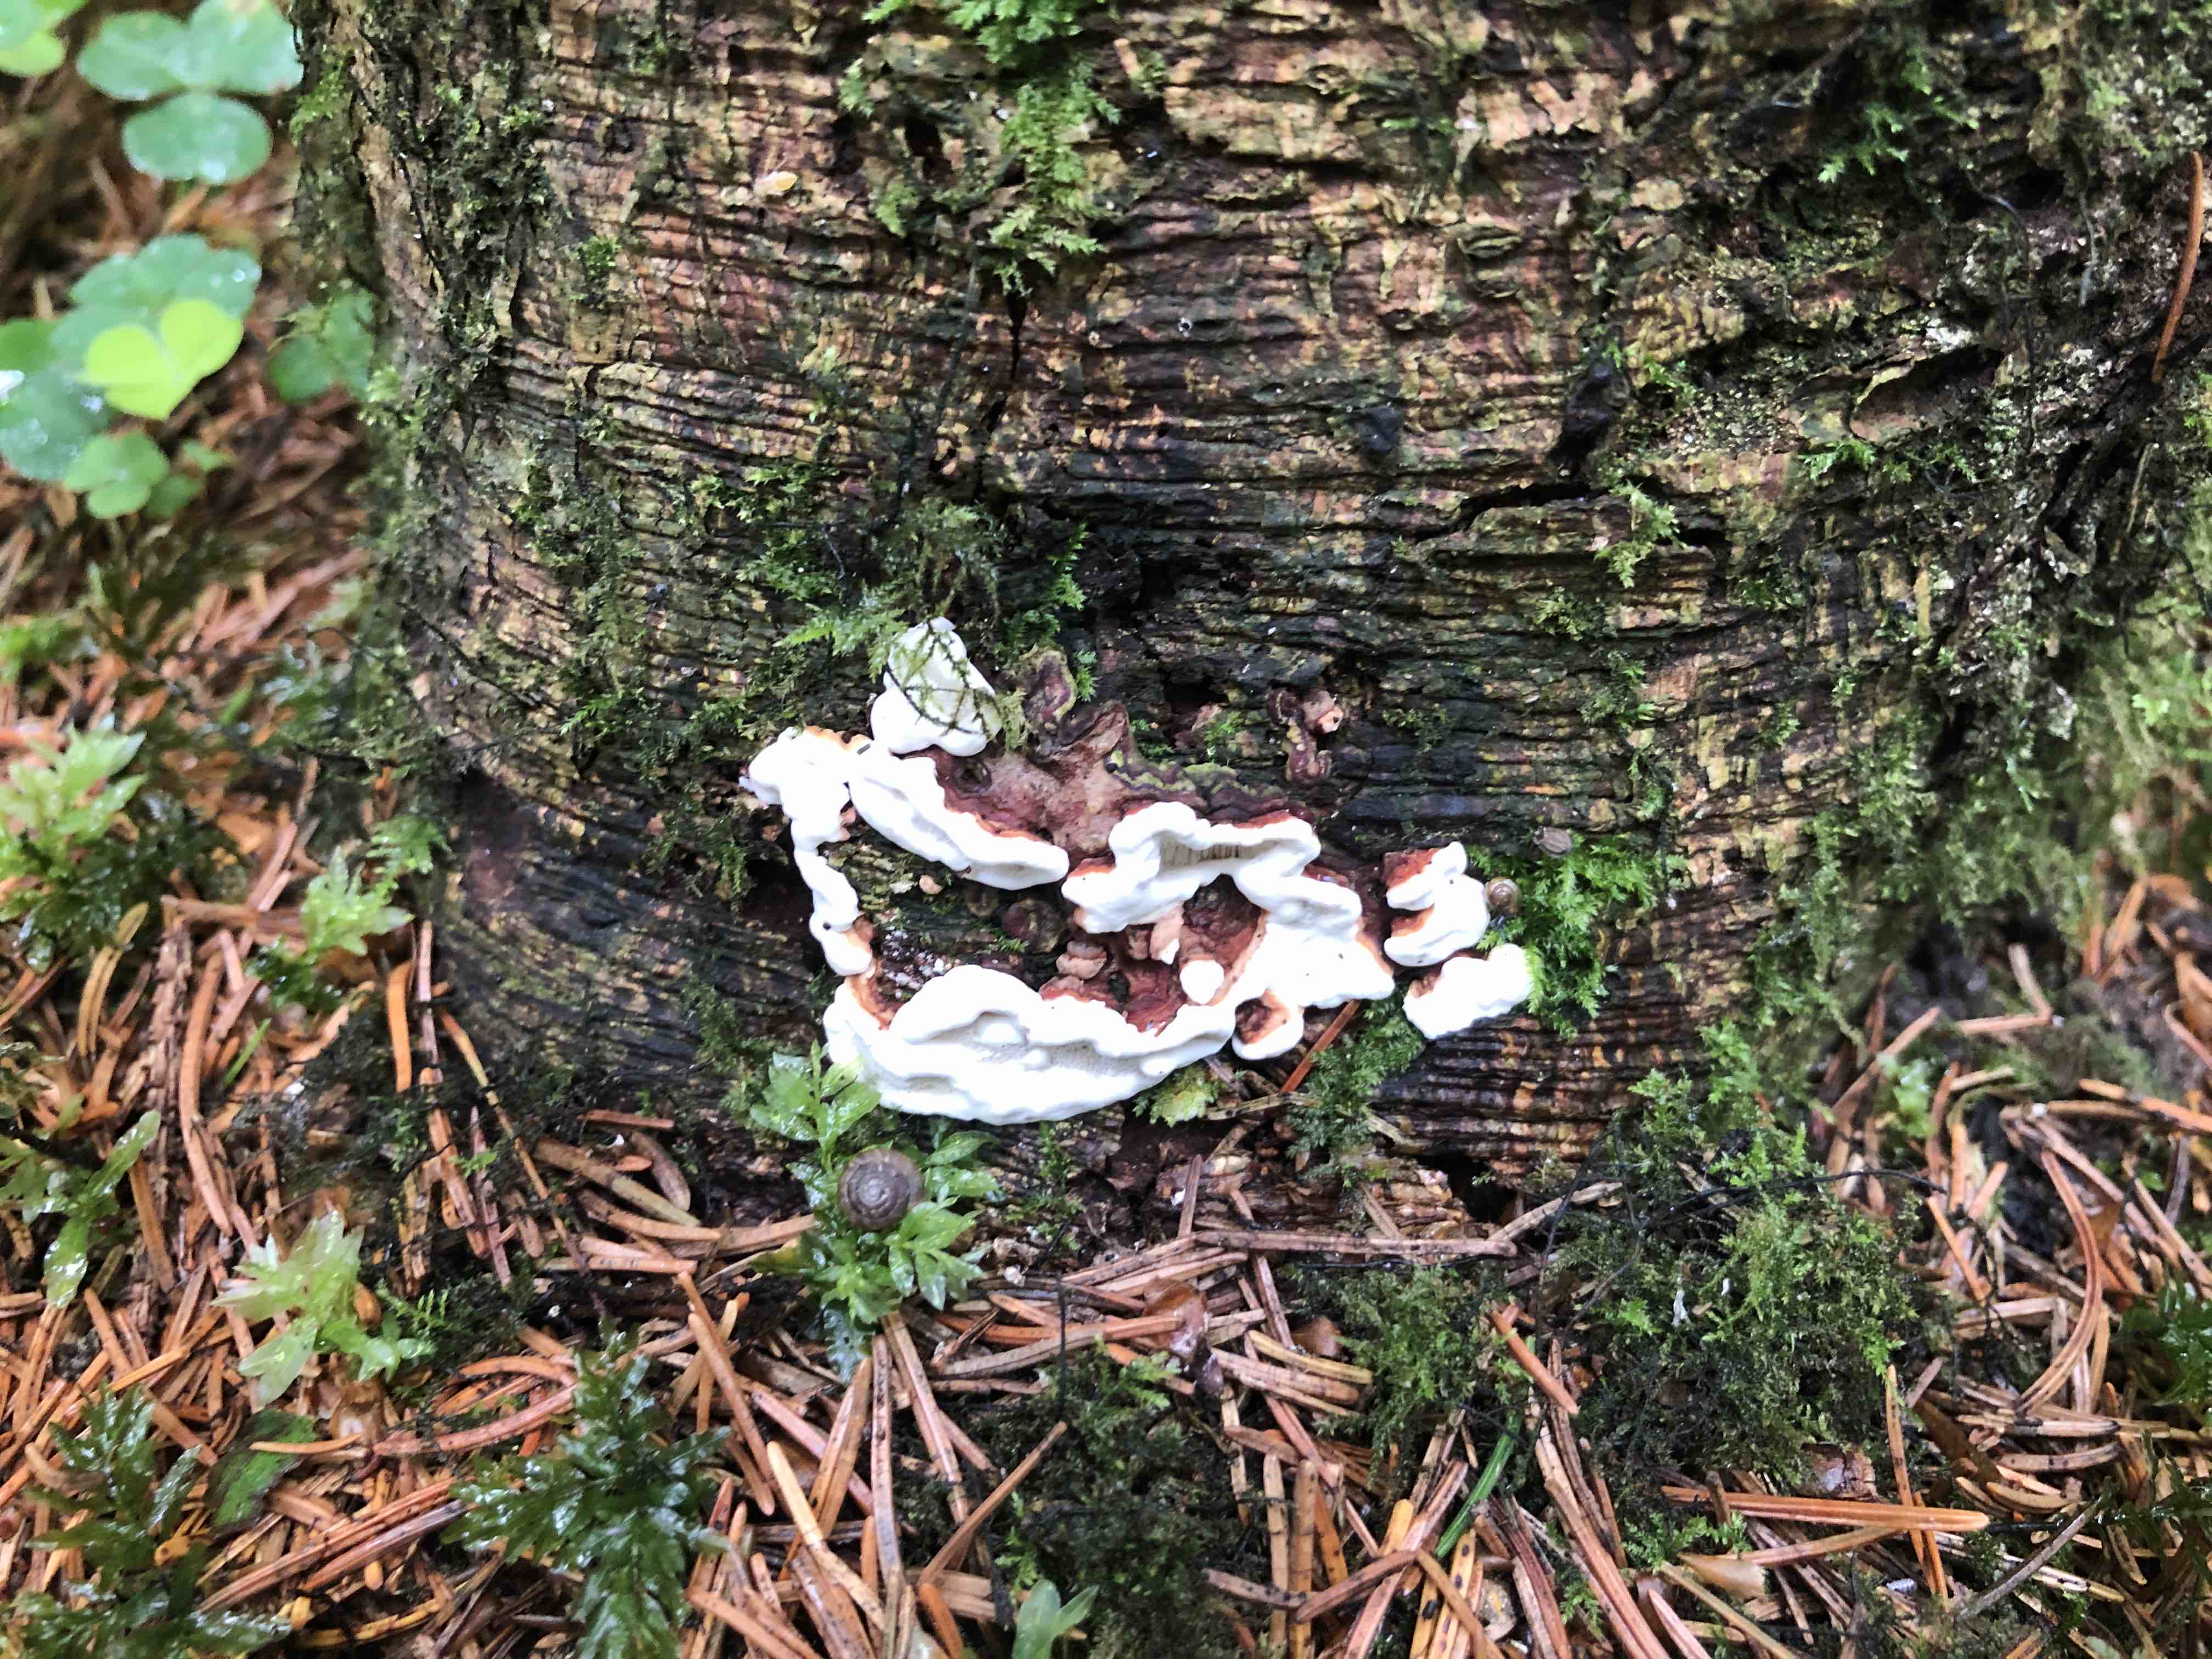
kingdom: Fungi
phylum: Basidiomycota
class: Agaricomycetes
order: Russulales
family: Bondarzewiaceae
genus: Heterobasidion
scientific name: Heterobasidion annosum
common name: almindelig rodfordærver
